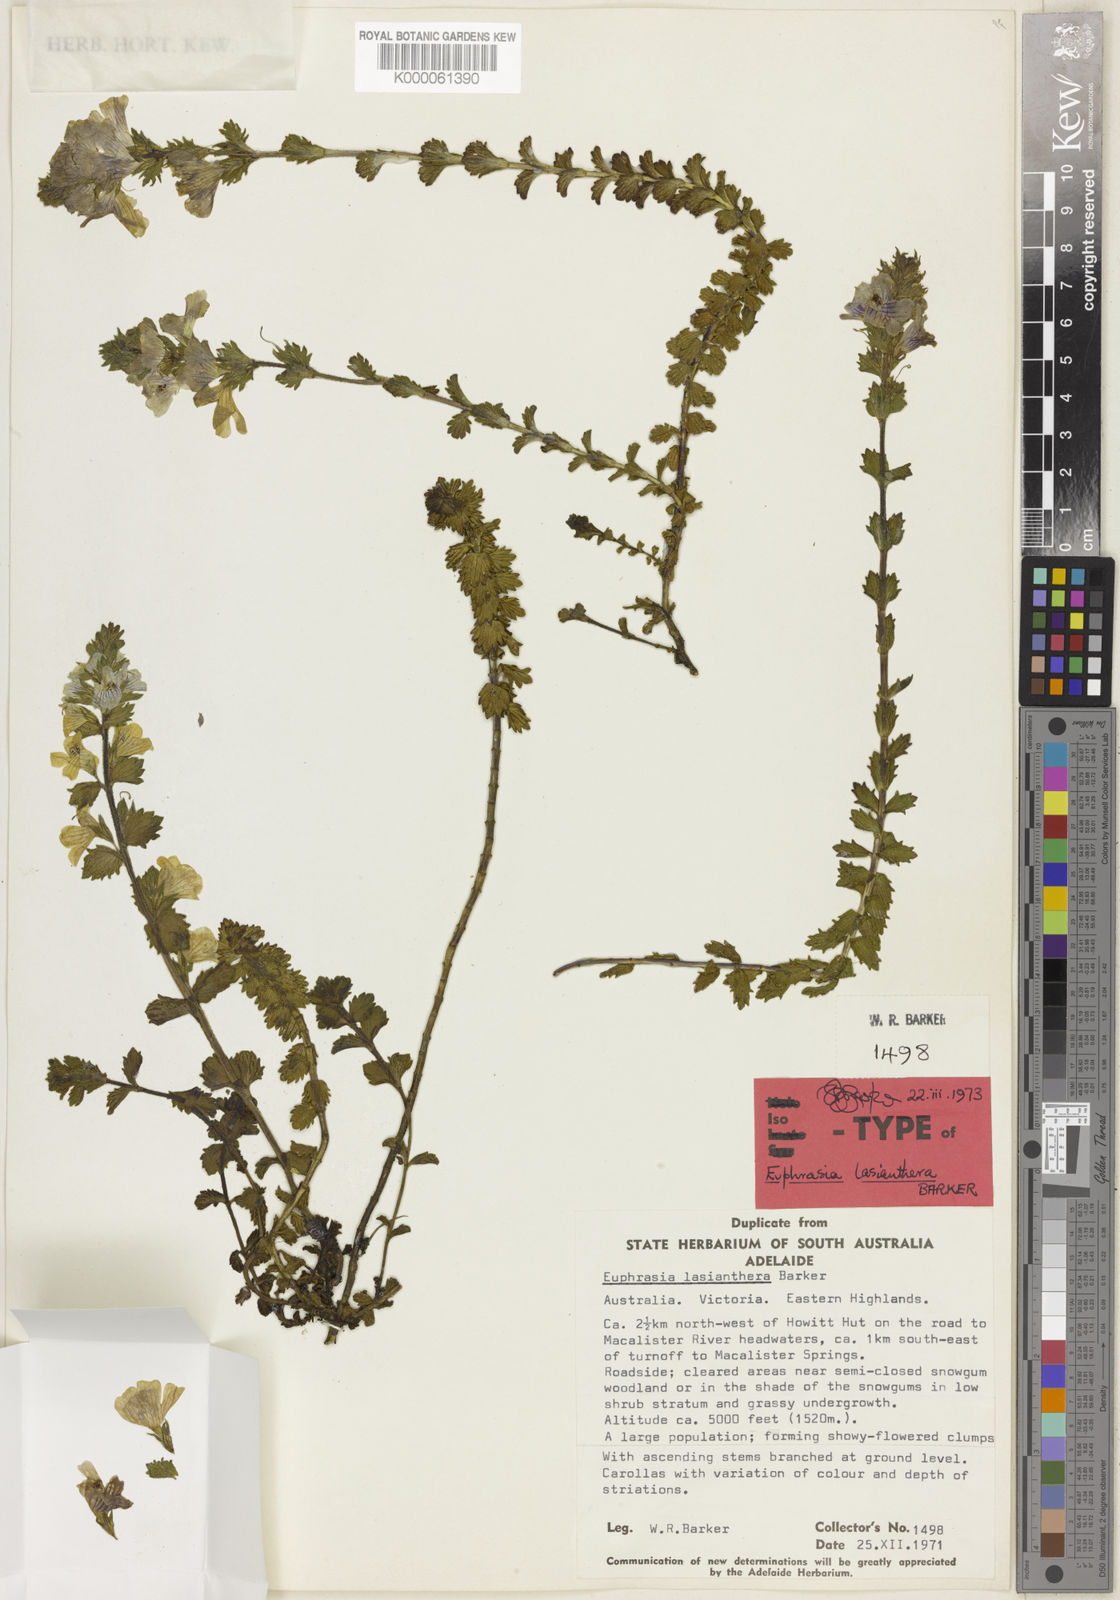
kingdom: Plantae
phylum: Tracheophyta
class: Magnoliopsida
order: Lamiales
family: Orobanchaceae
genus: Euphrasia
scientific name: Euphrasia lasianthera
